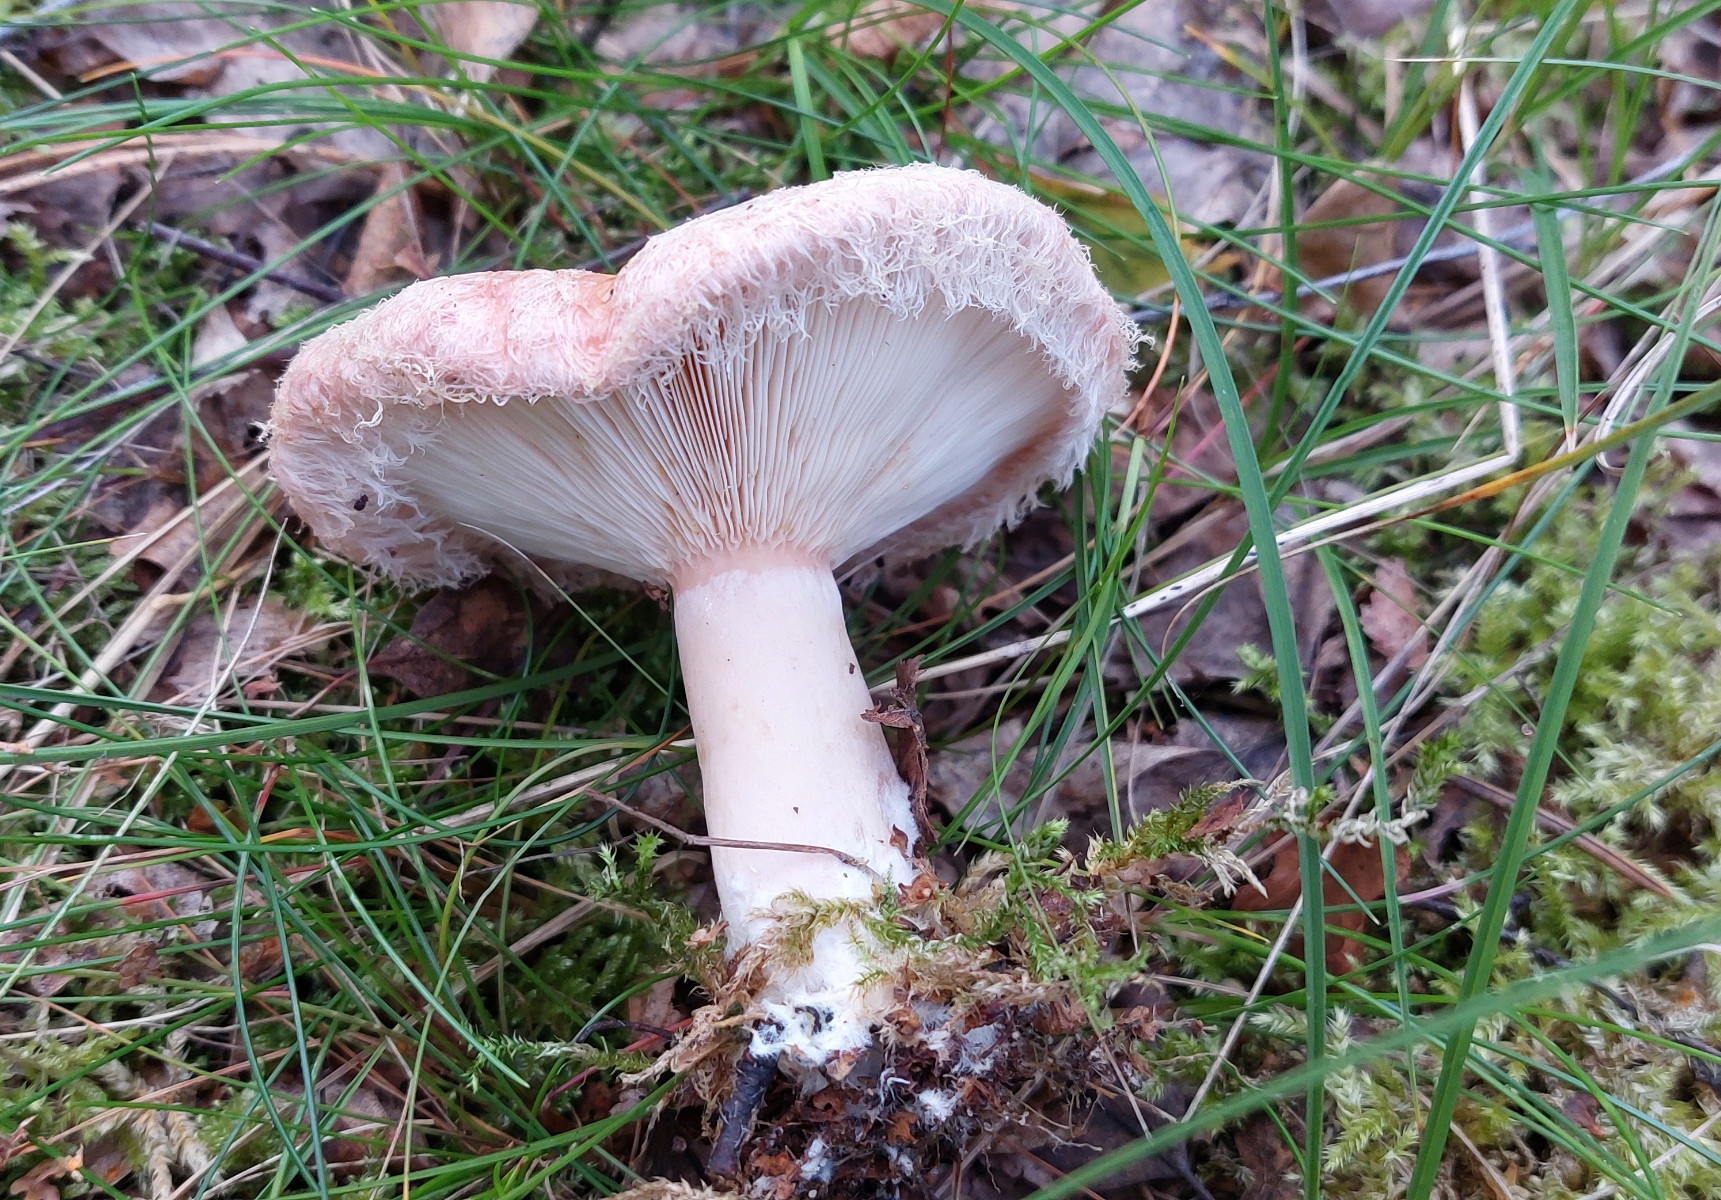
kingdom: Fungi
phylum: Basidiomycota
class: Agaricomycetes
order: Russulales
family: Russulaceae
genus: Lactarius
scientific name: Lactarius torminosus
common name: skægget mælkehat
